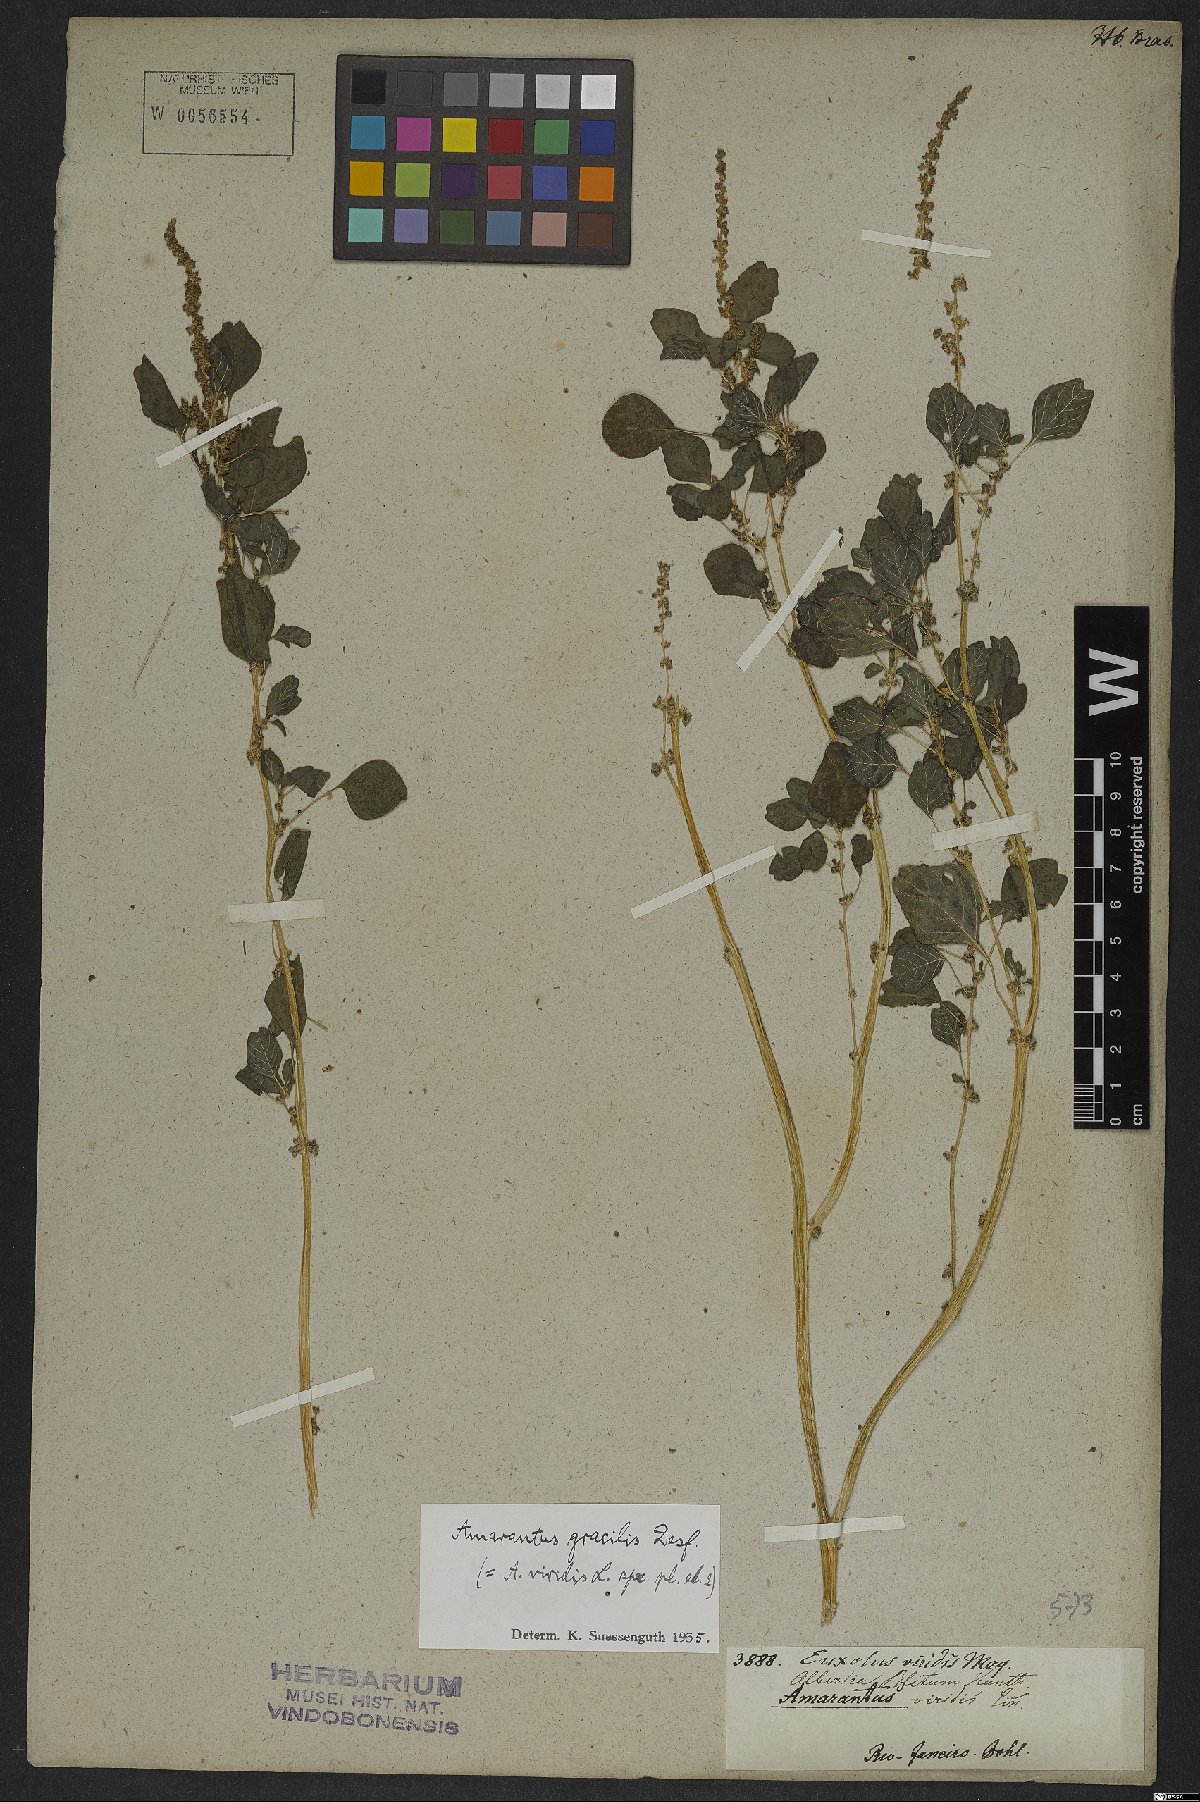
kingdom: Plantae
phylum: Tracheophyta
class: Magnoliopsida
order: Caryophyllales
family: Amaranthaceae
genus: Amaranthus
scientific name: Amaranthus emarginatus
